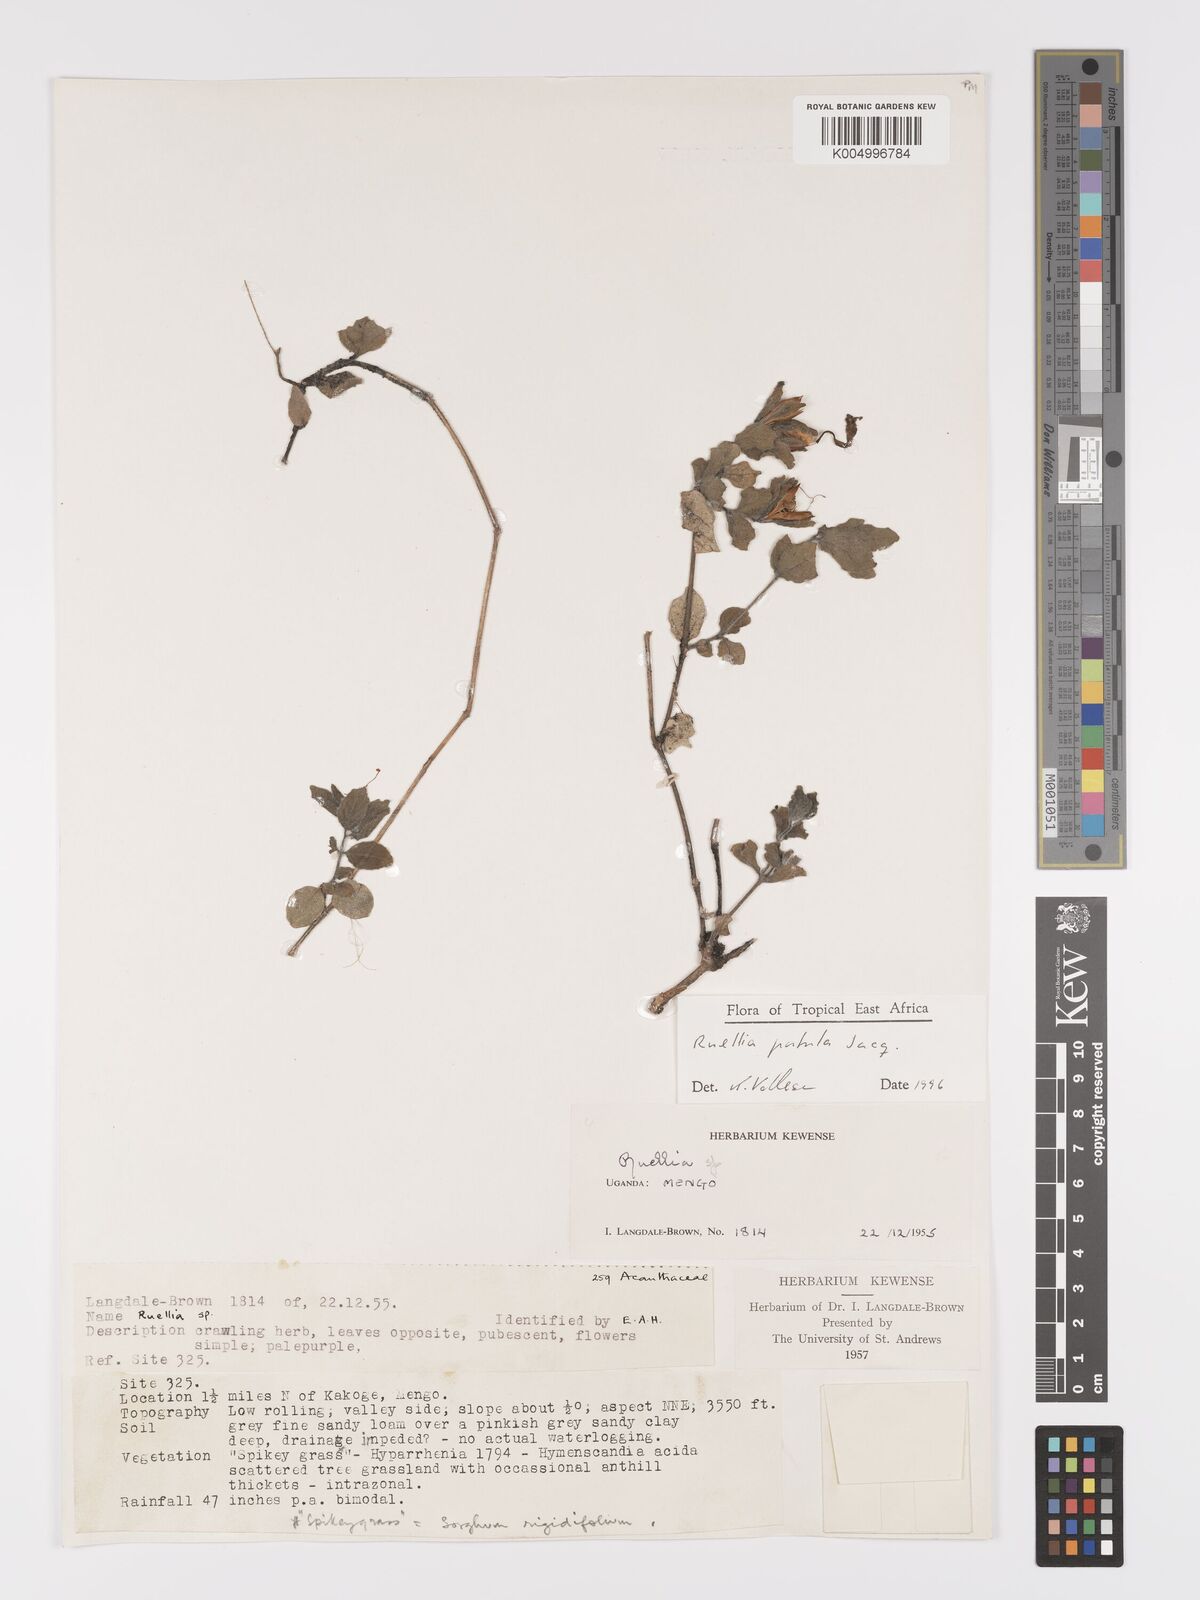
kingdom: Plantae
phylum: Tracheophyta
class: Magnoliopsida
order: Lamiales
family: Acanthaceae
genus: Ruellia
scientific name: Ruellia patula
